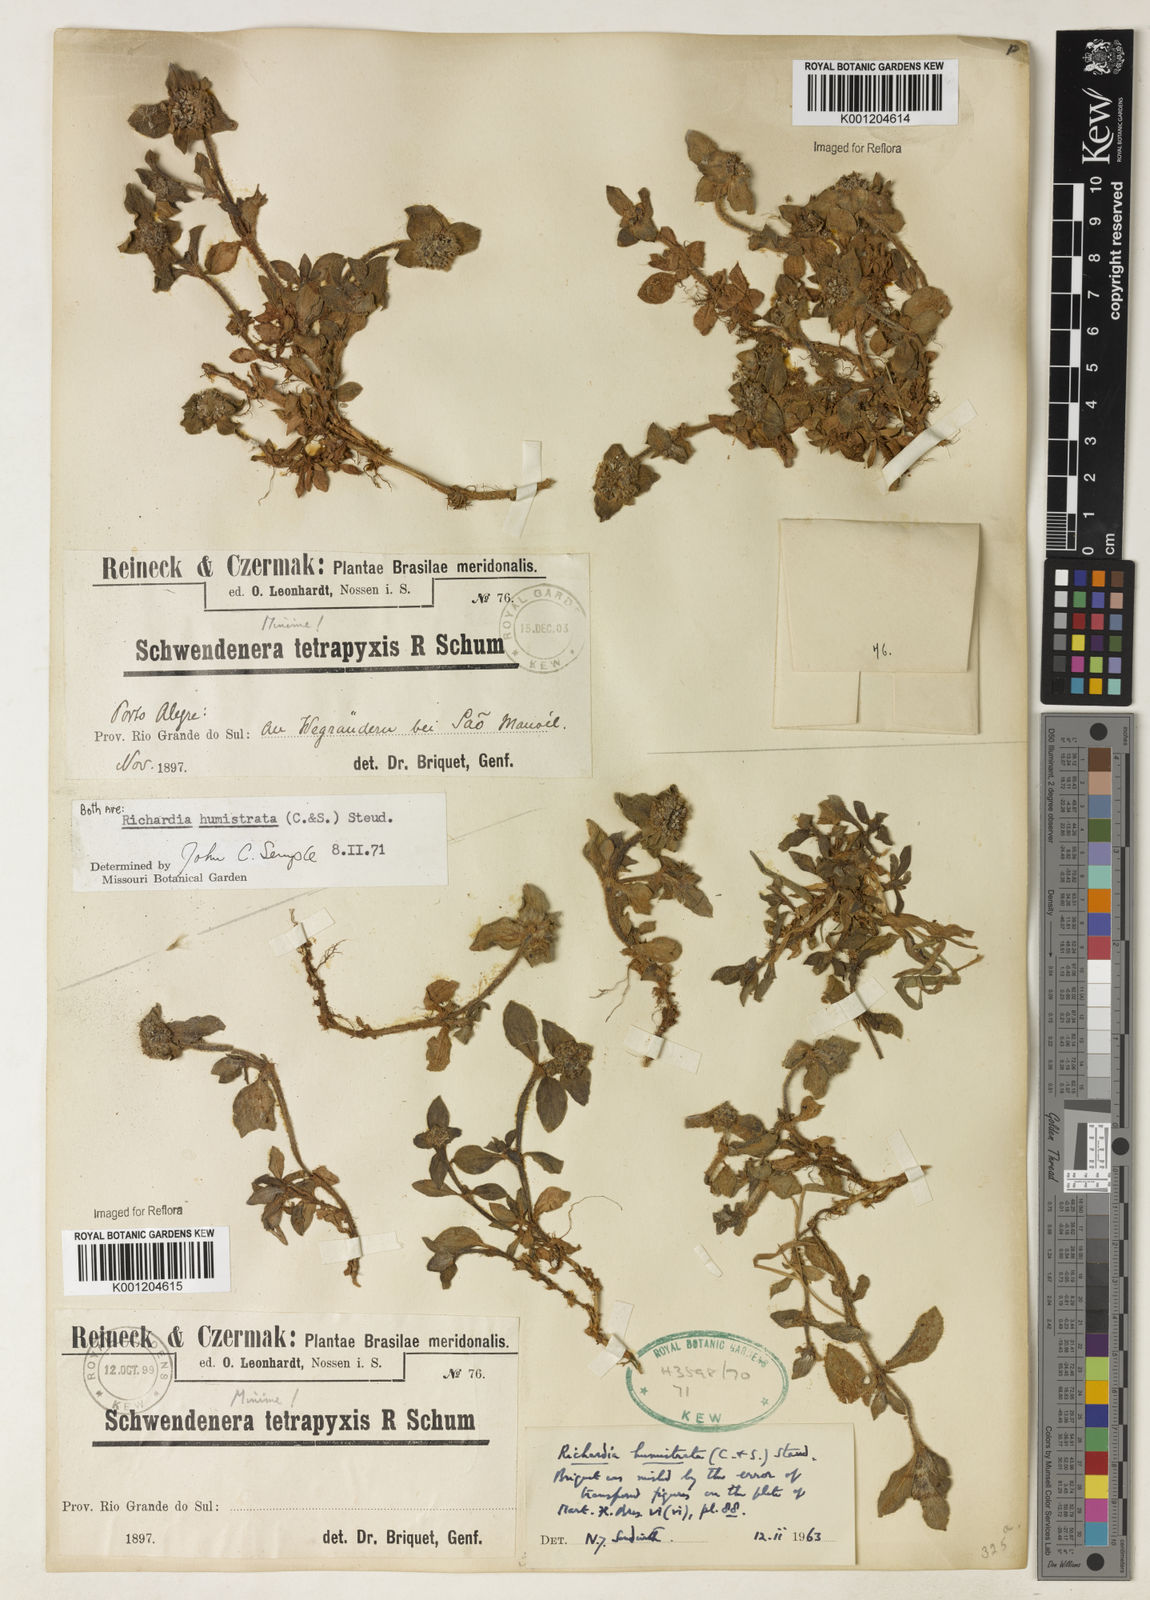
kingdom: Plantae
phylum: Tracheophyta
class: Magnoliopsida
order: Gentianales
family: Rubiaceae
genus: Richardia
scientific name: Richardia humistrata
